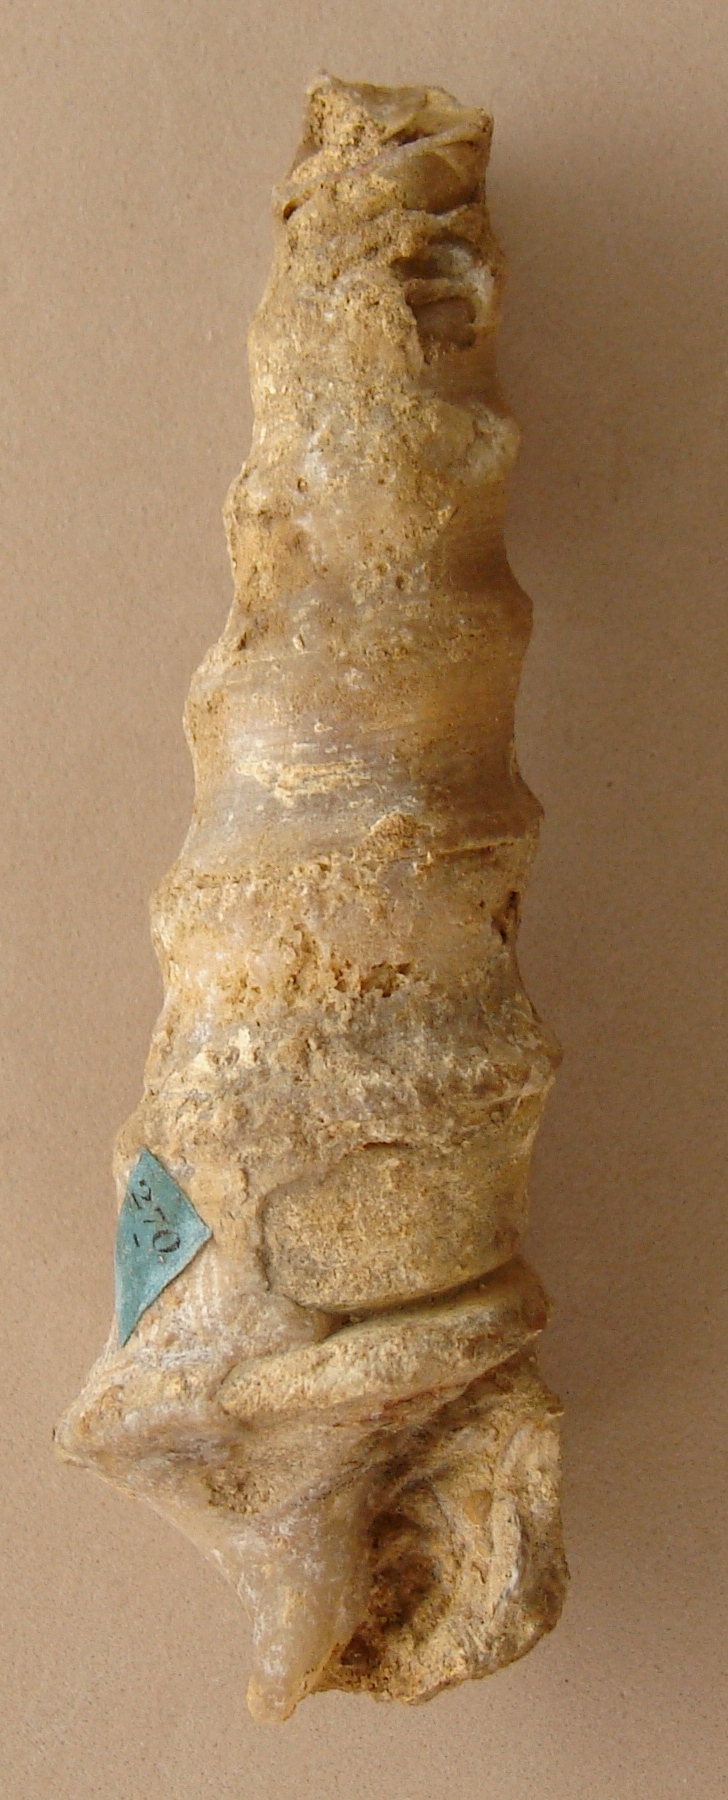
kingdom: Animalia
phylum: Mollusca
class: Gastropoda
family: Nerineidae
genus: Nerinea
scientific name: Nerinea
